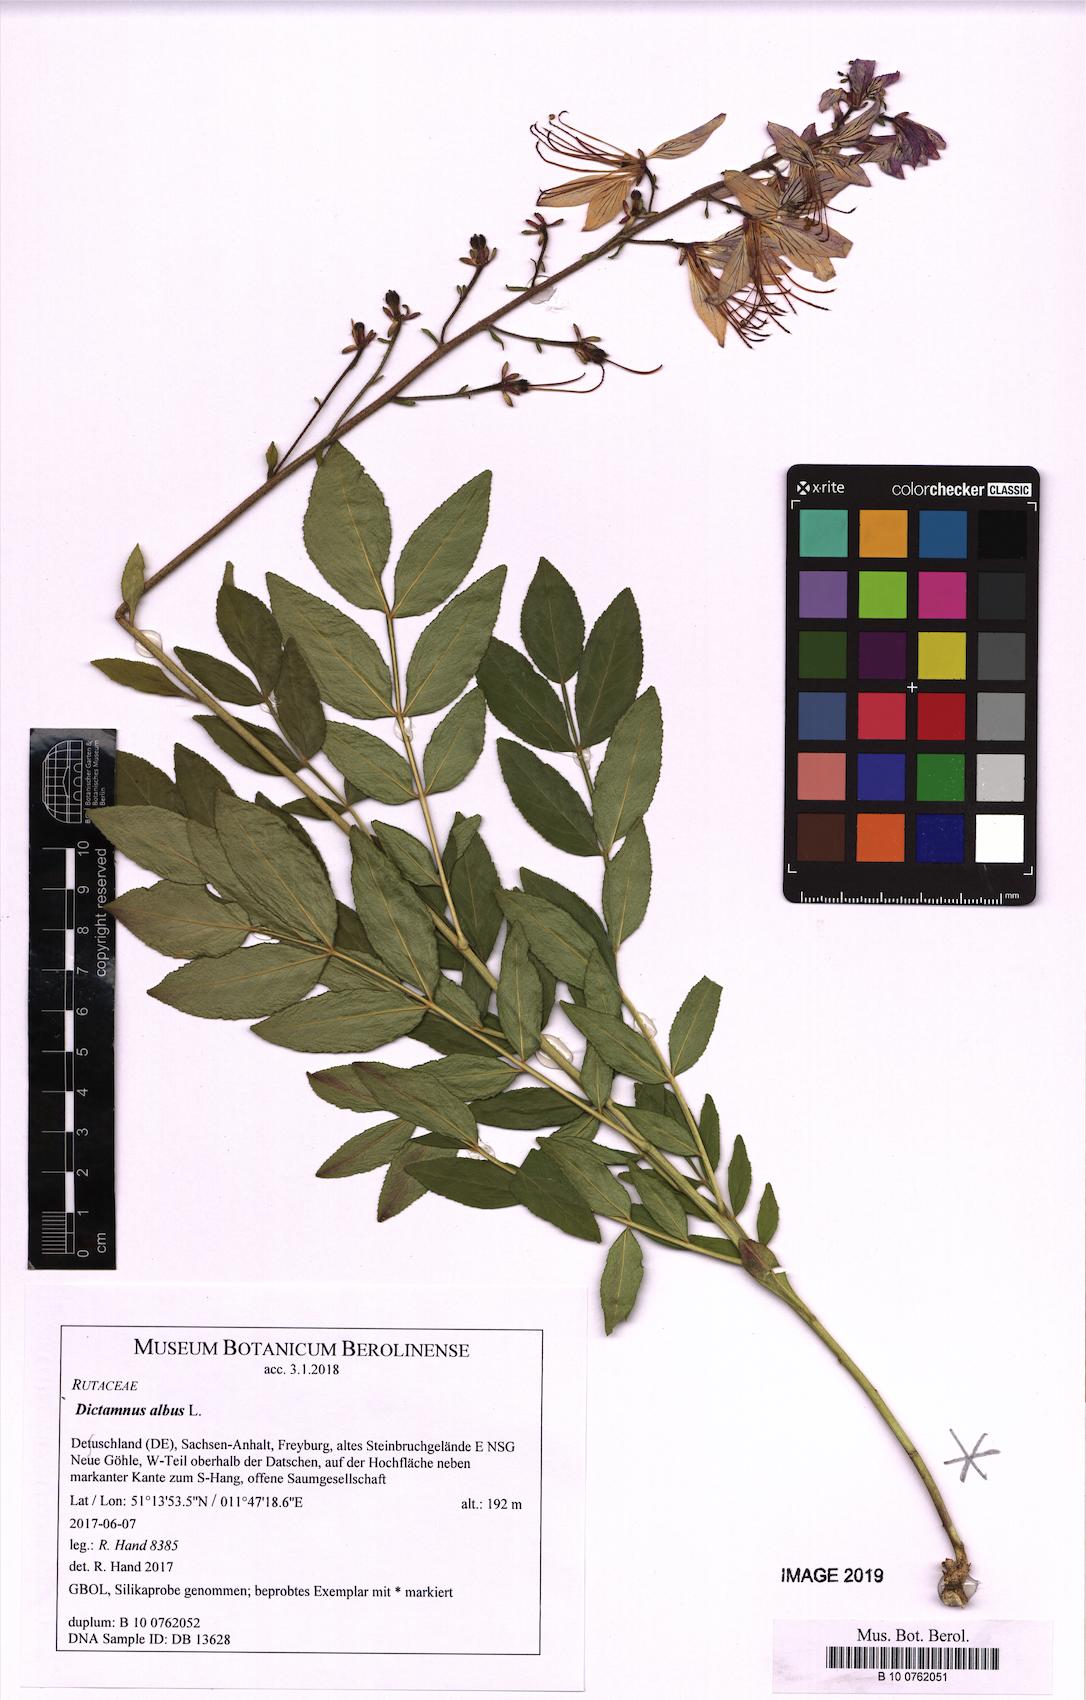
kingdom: Plantae
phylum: Tracheophyta
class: Magnoliopsida
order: Sapindales
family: Rutaceae
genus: Dictamnus
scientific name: Dictamnus albus
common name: Gasplant
